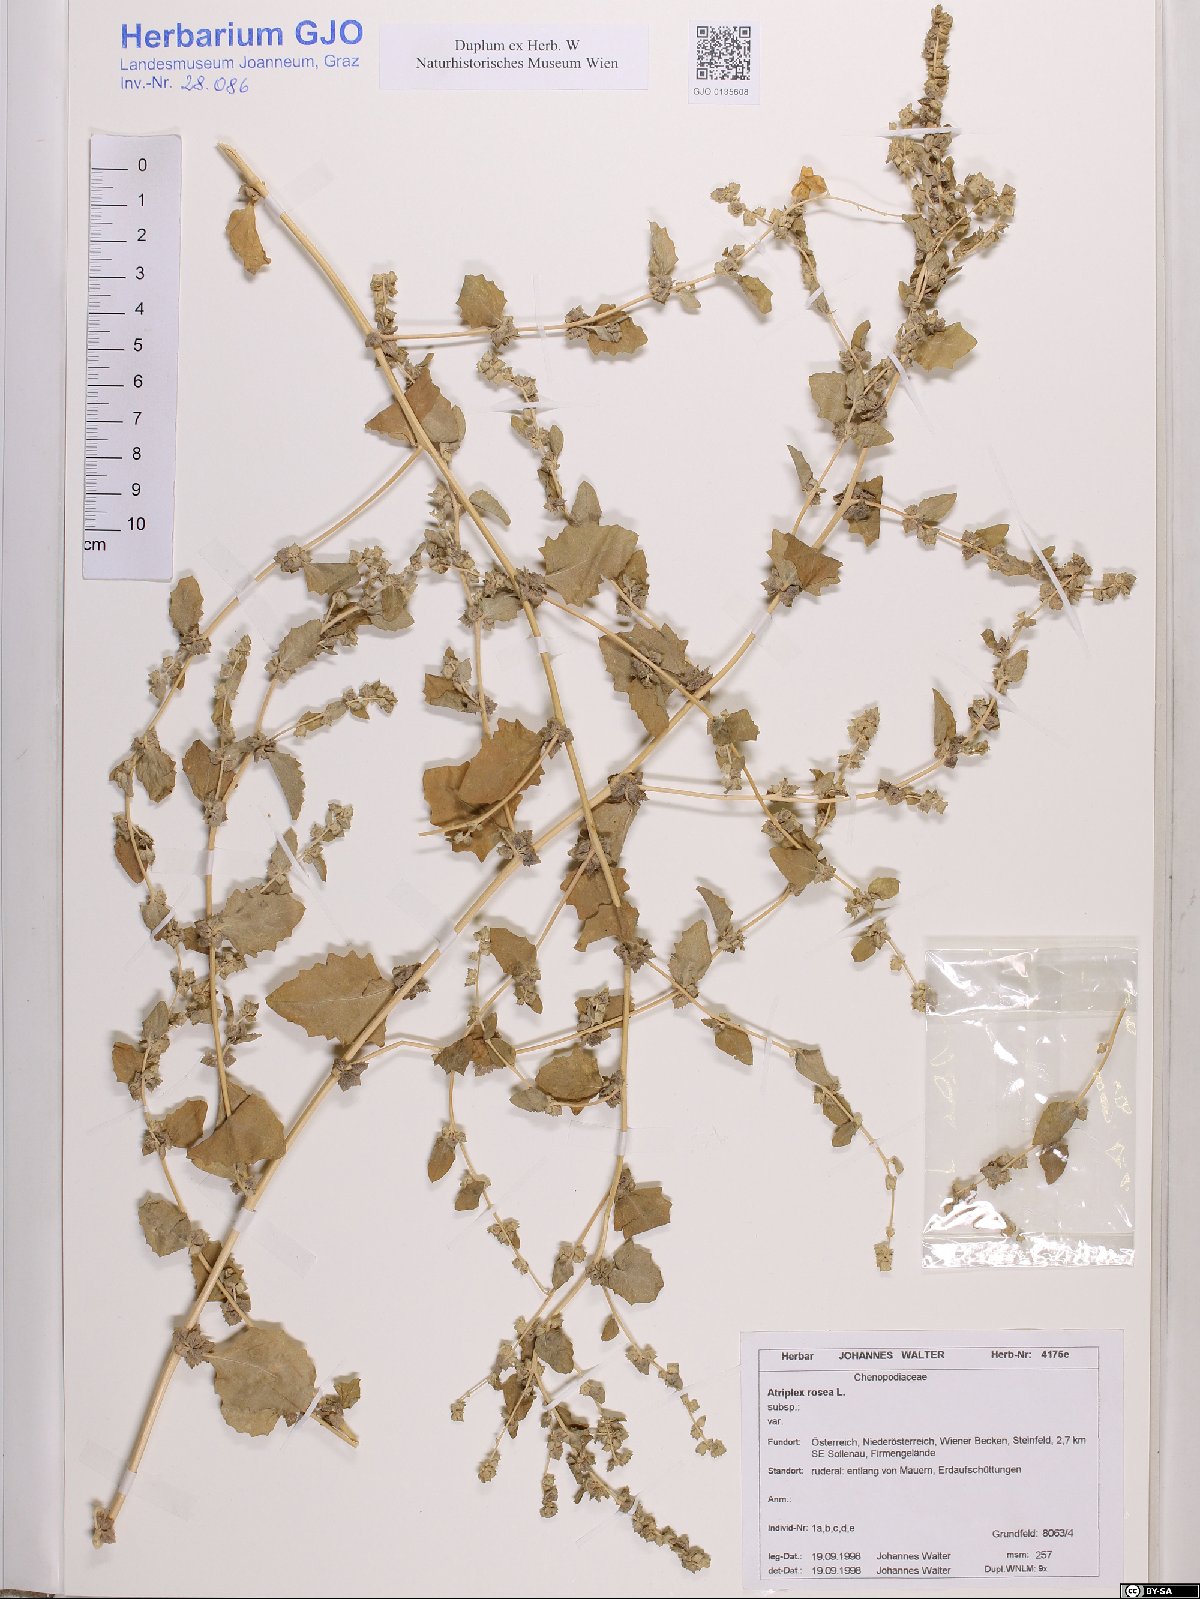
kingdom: Plantae
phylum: Tracheophyta
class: Magnoliopsida
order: Caryophyllales
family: Amaranthaceae
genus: Atriplex
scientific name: Atriplex rosea
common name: Tumbling saltweed
